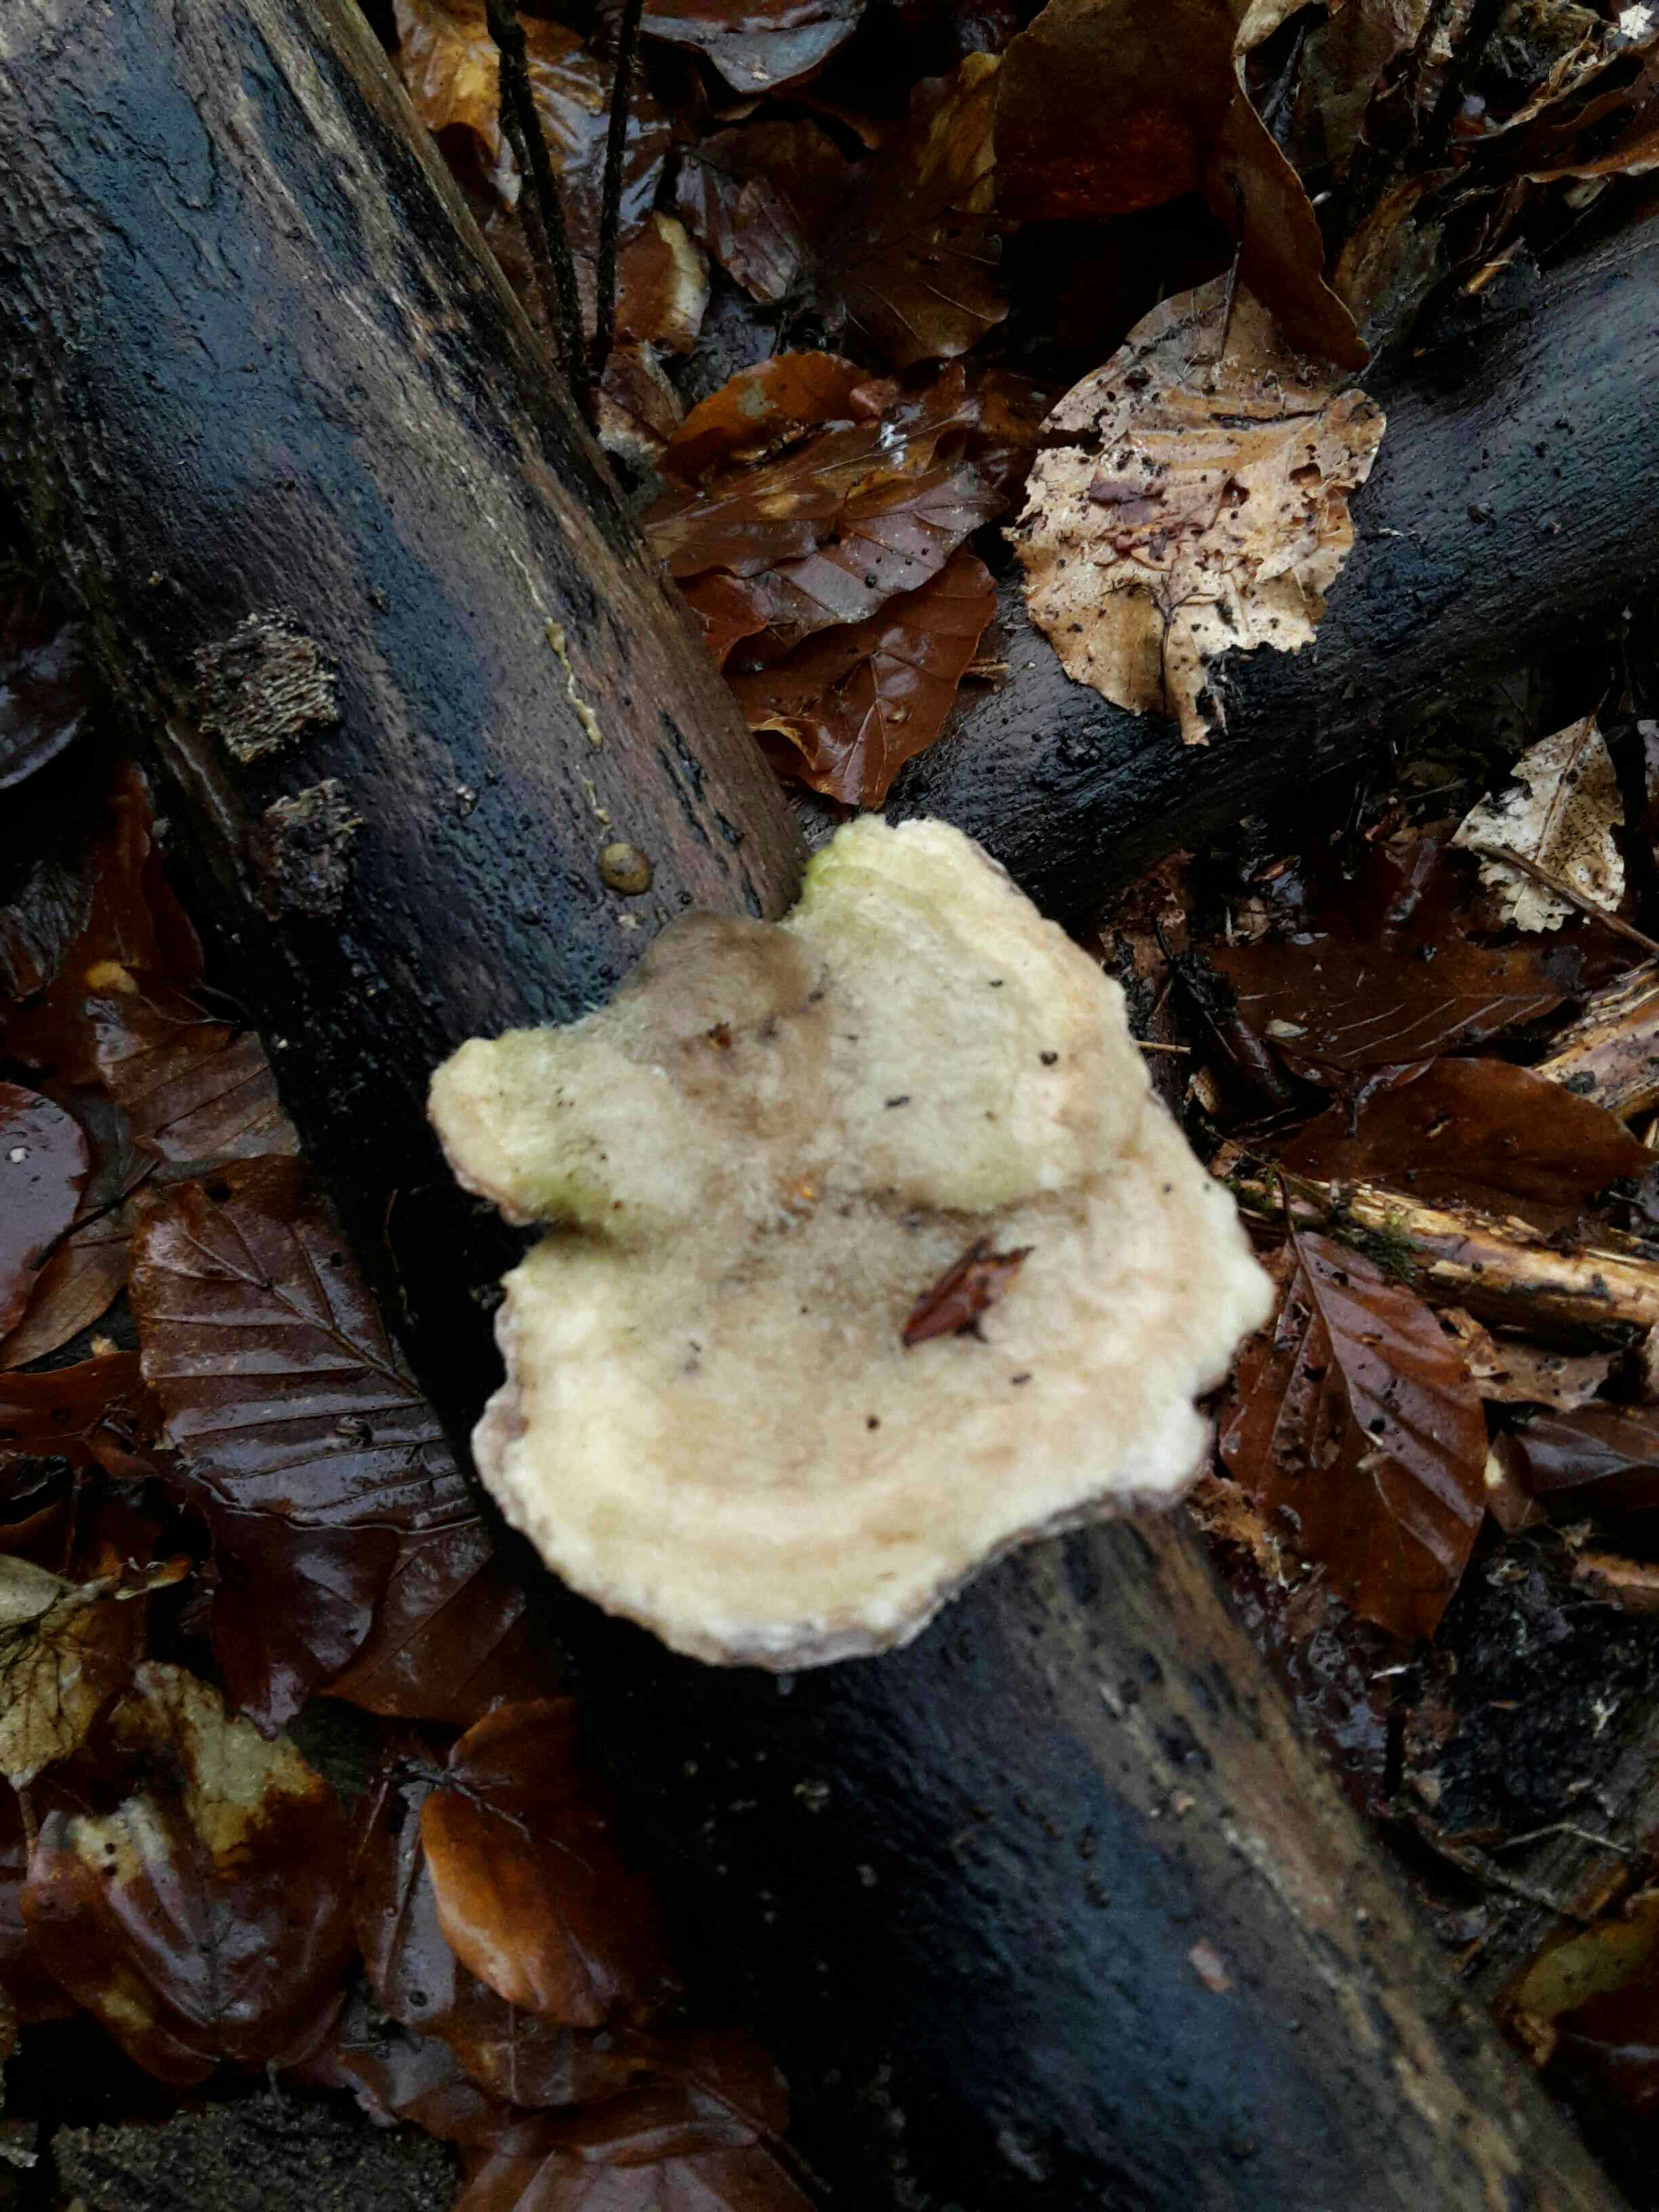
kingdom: Fungi
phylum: Basidiomycota
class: Agaricomycetes
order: Polyporales
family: Polyporaceae
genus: Trametes
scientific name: Trametes hirsuta
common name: håret læderporesvamp
